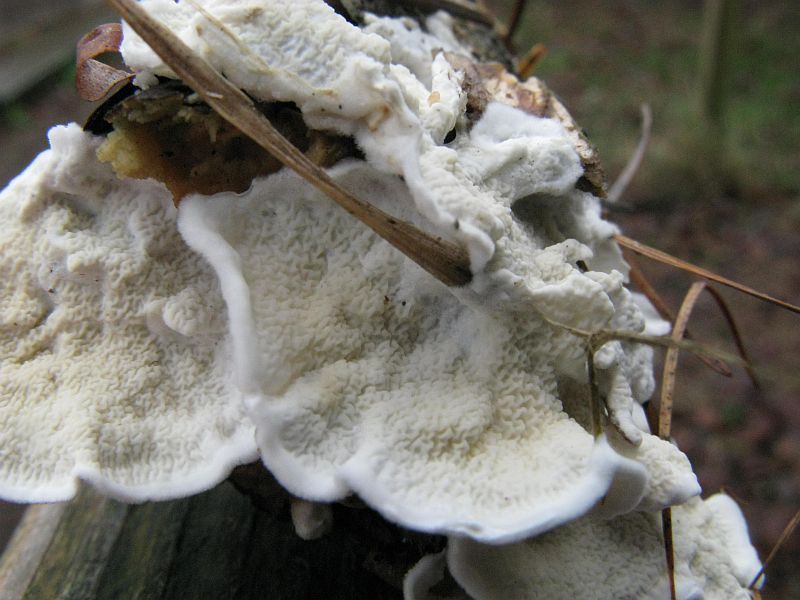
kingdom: Fungi
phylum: Basidiomycota
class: Agaricomycetes
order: Polyporales
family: Irpicaceae
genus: Byssomerulius
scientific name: Byssomerulius corium
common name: læder-åresvamp
